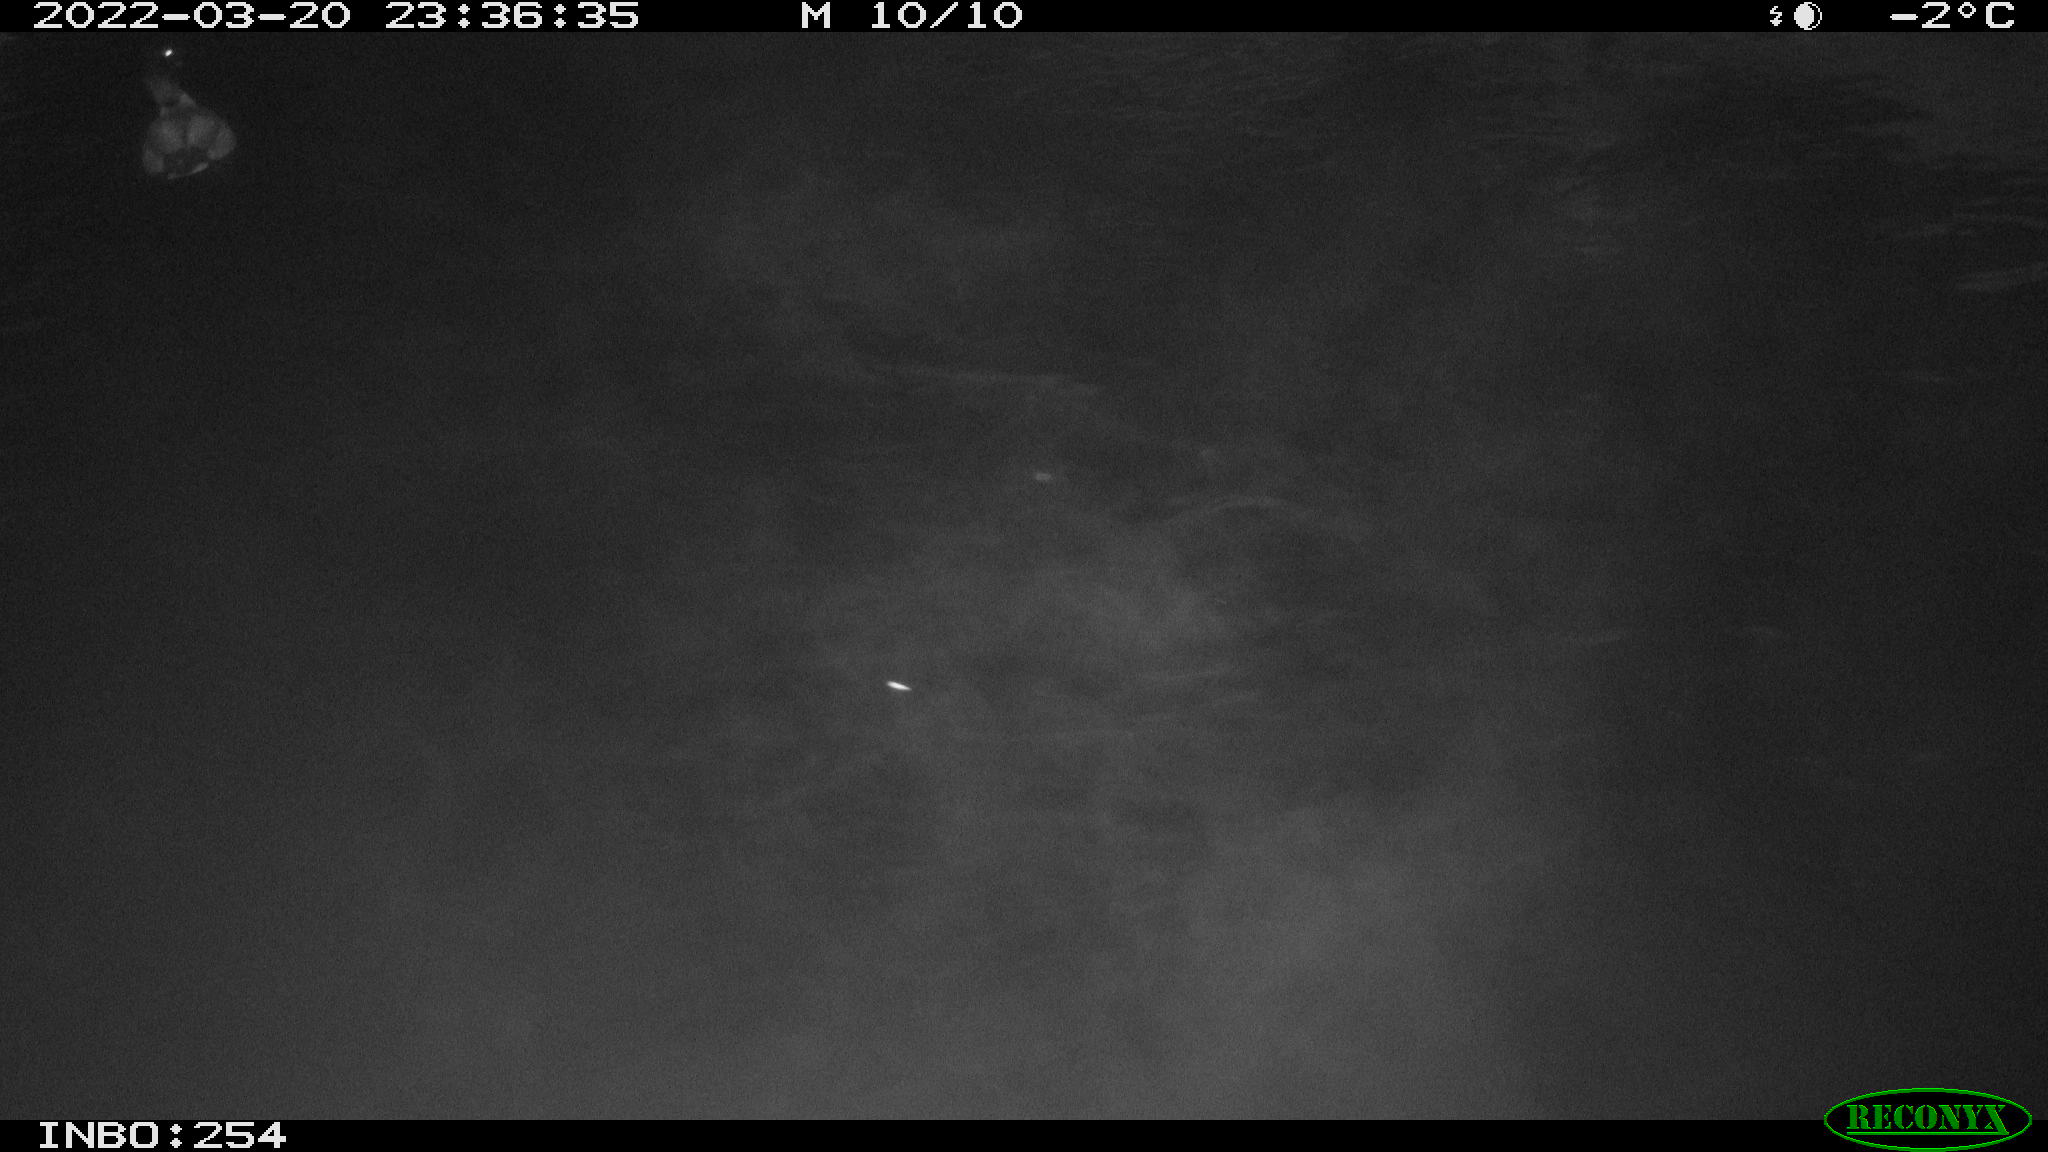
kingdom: Animalia
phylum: Chordata
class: Aves
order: Anseriformes
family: Anatidae
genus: Anas
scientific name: Anas platyrhynchos
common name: Mallard
